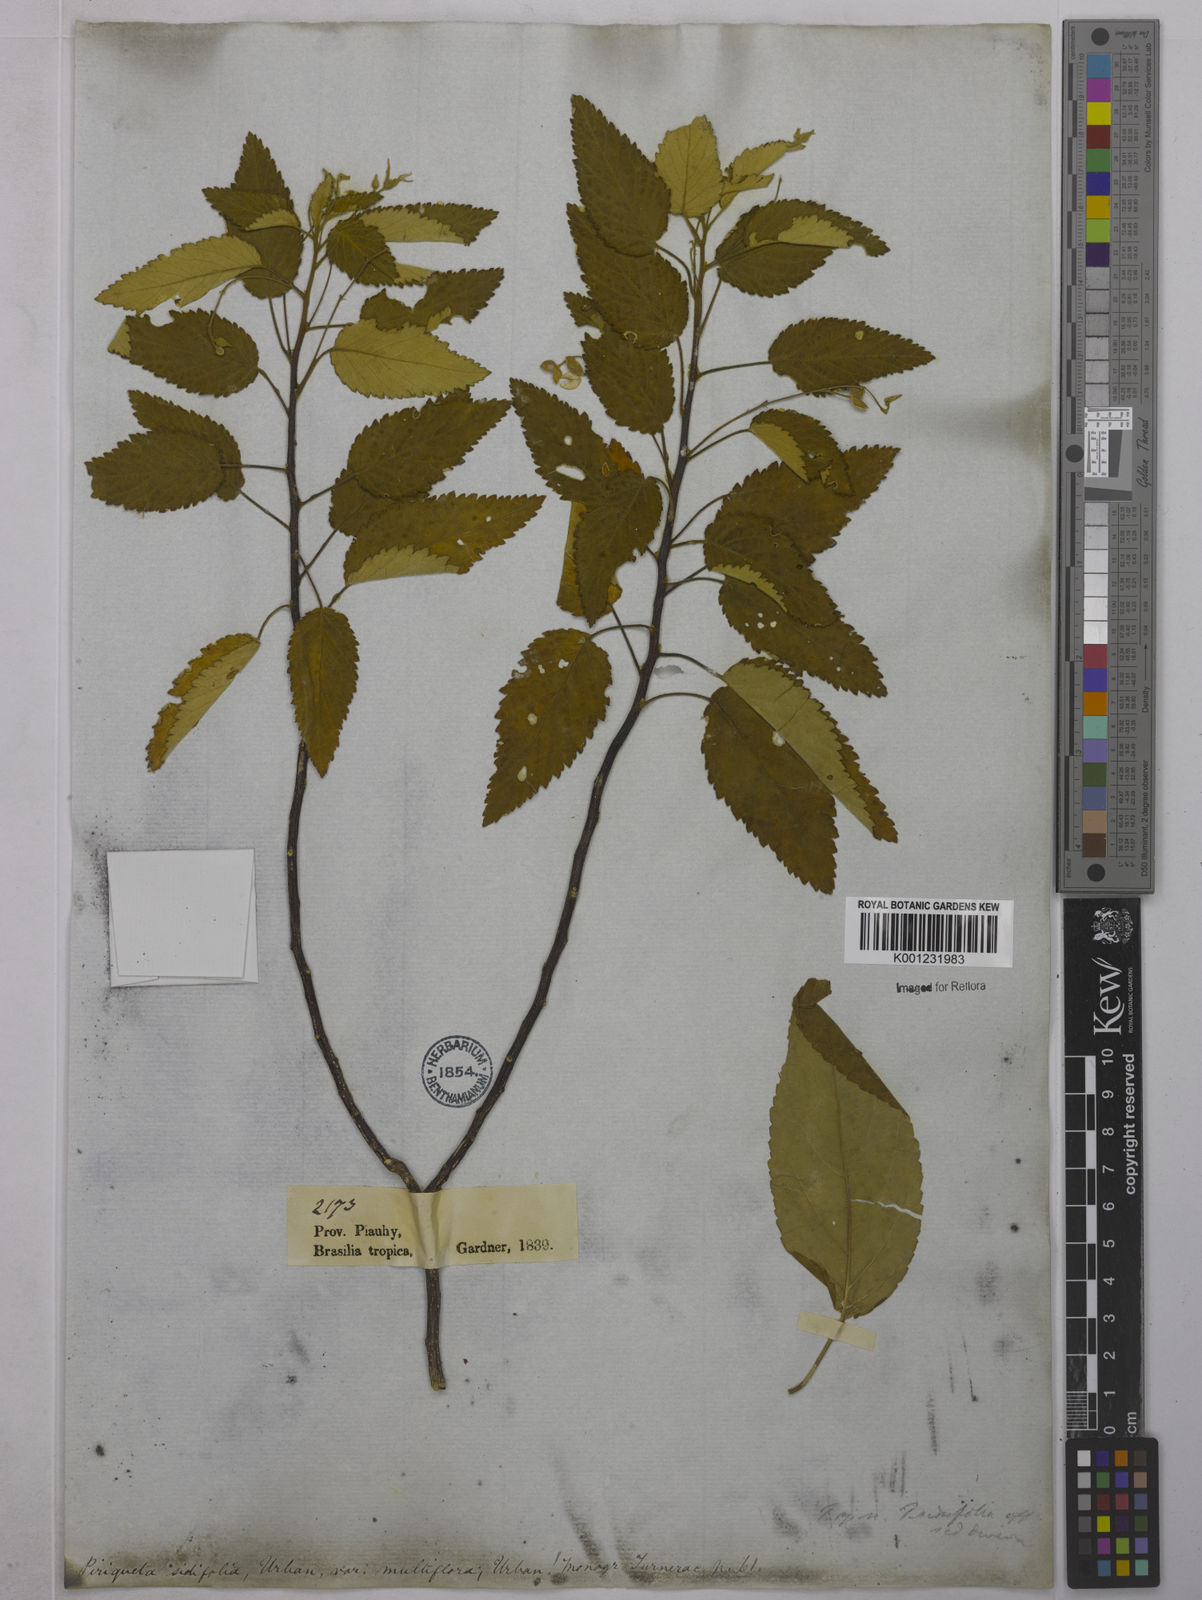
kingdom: Plantae
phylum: Tracheophyta
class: Magnoliopsida
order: Malpighiales
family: Turneraceae
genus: Piriqueta
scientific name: Piriqueta sidifolia
